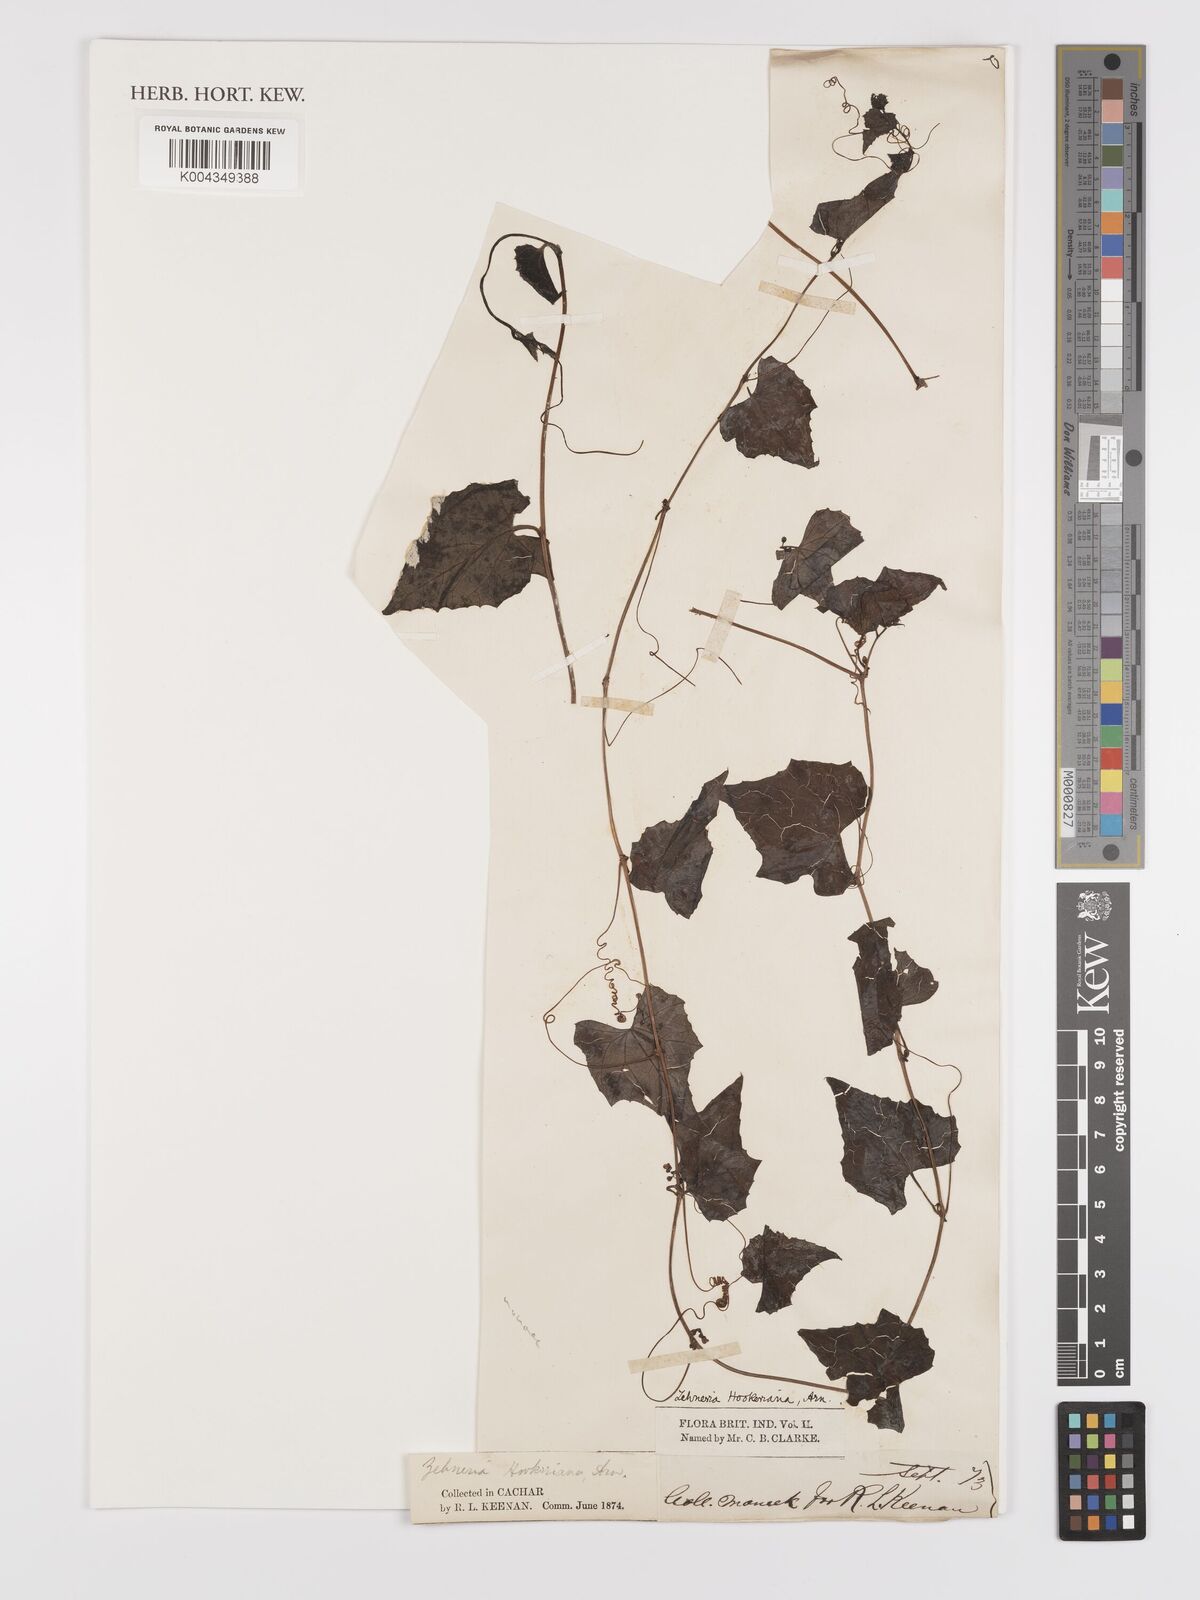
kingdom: Plantae
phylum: Tracheophyta
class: Magnoliopsida
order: Cucurbitales
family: Cucurbitaceae
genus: Zehneria
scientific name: Zehneria maysorensis
